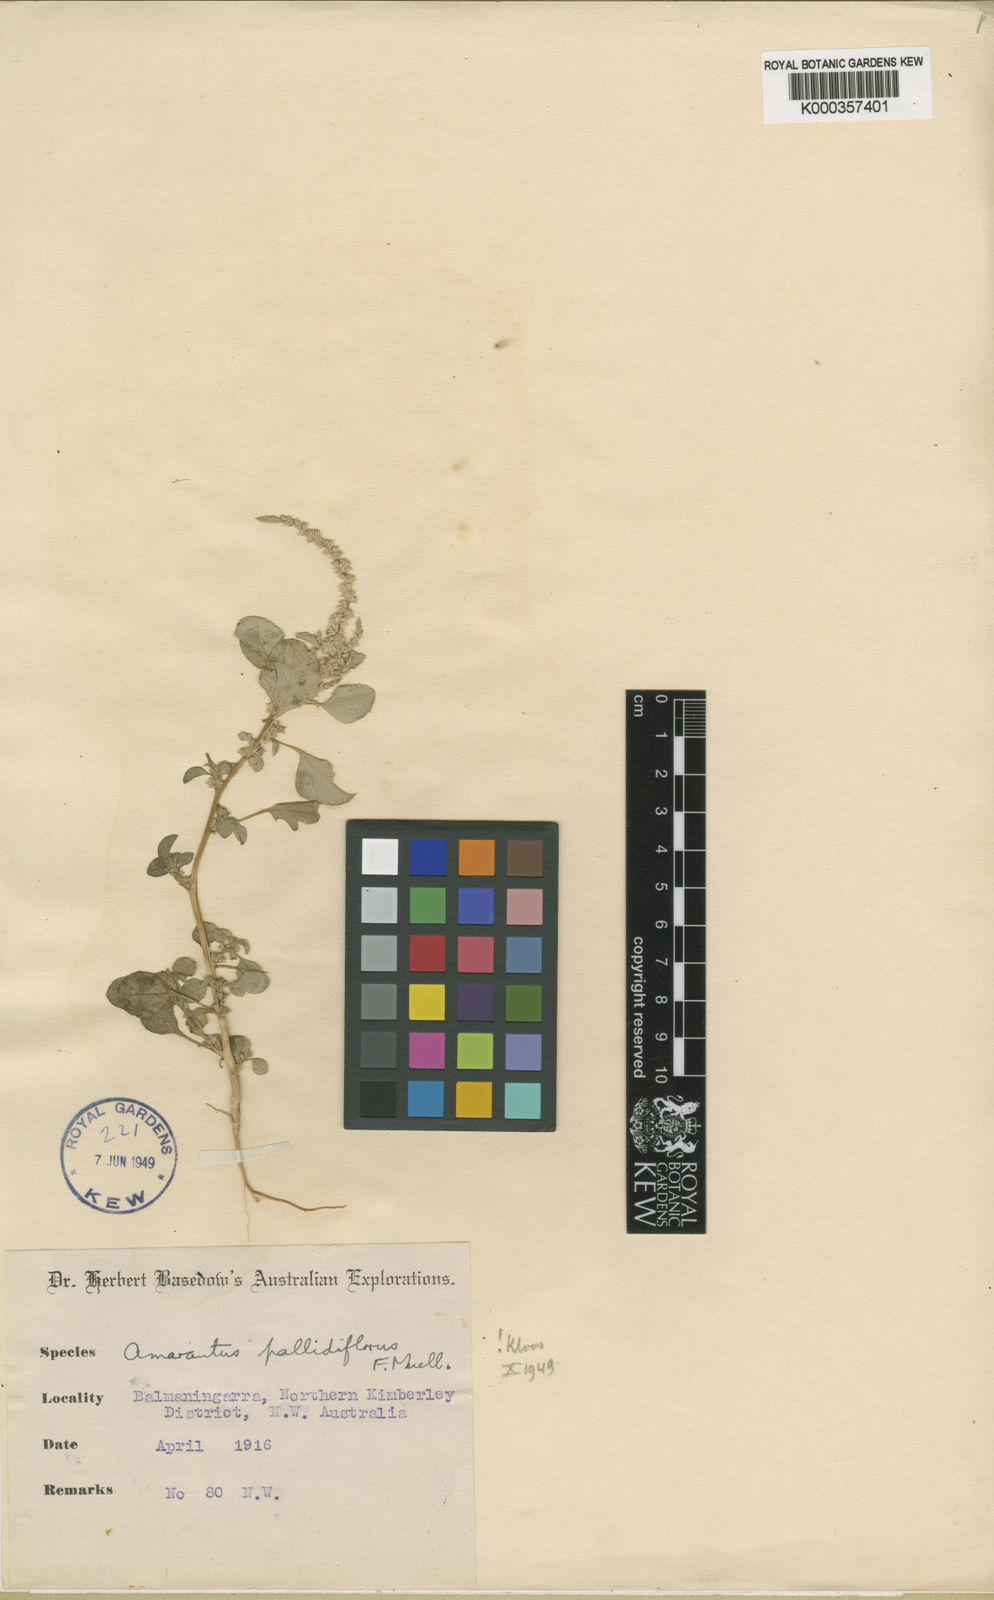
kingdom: Plantae
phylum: Tracheophyta
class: Magnoliopsida
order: Caryophyllales
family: Amaranthaceae
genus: Amaranthus
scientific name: Amaranthus undulatus
